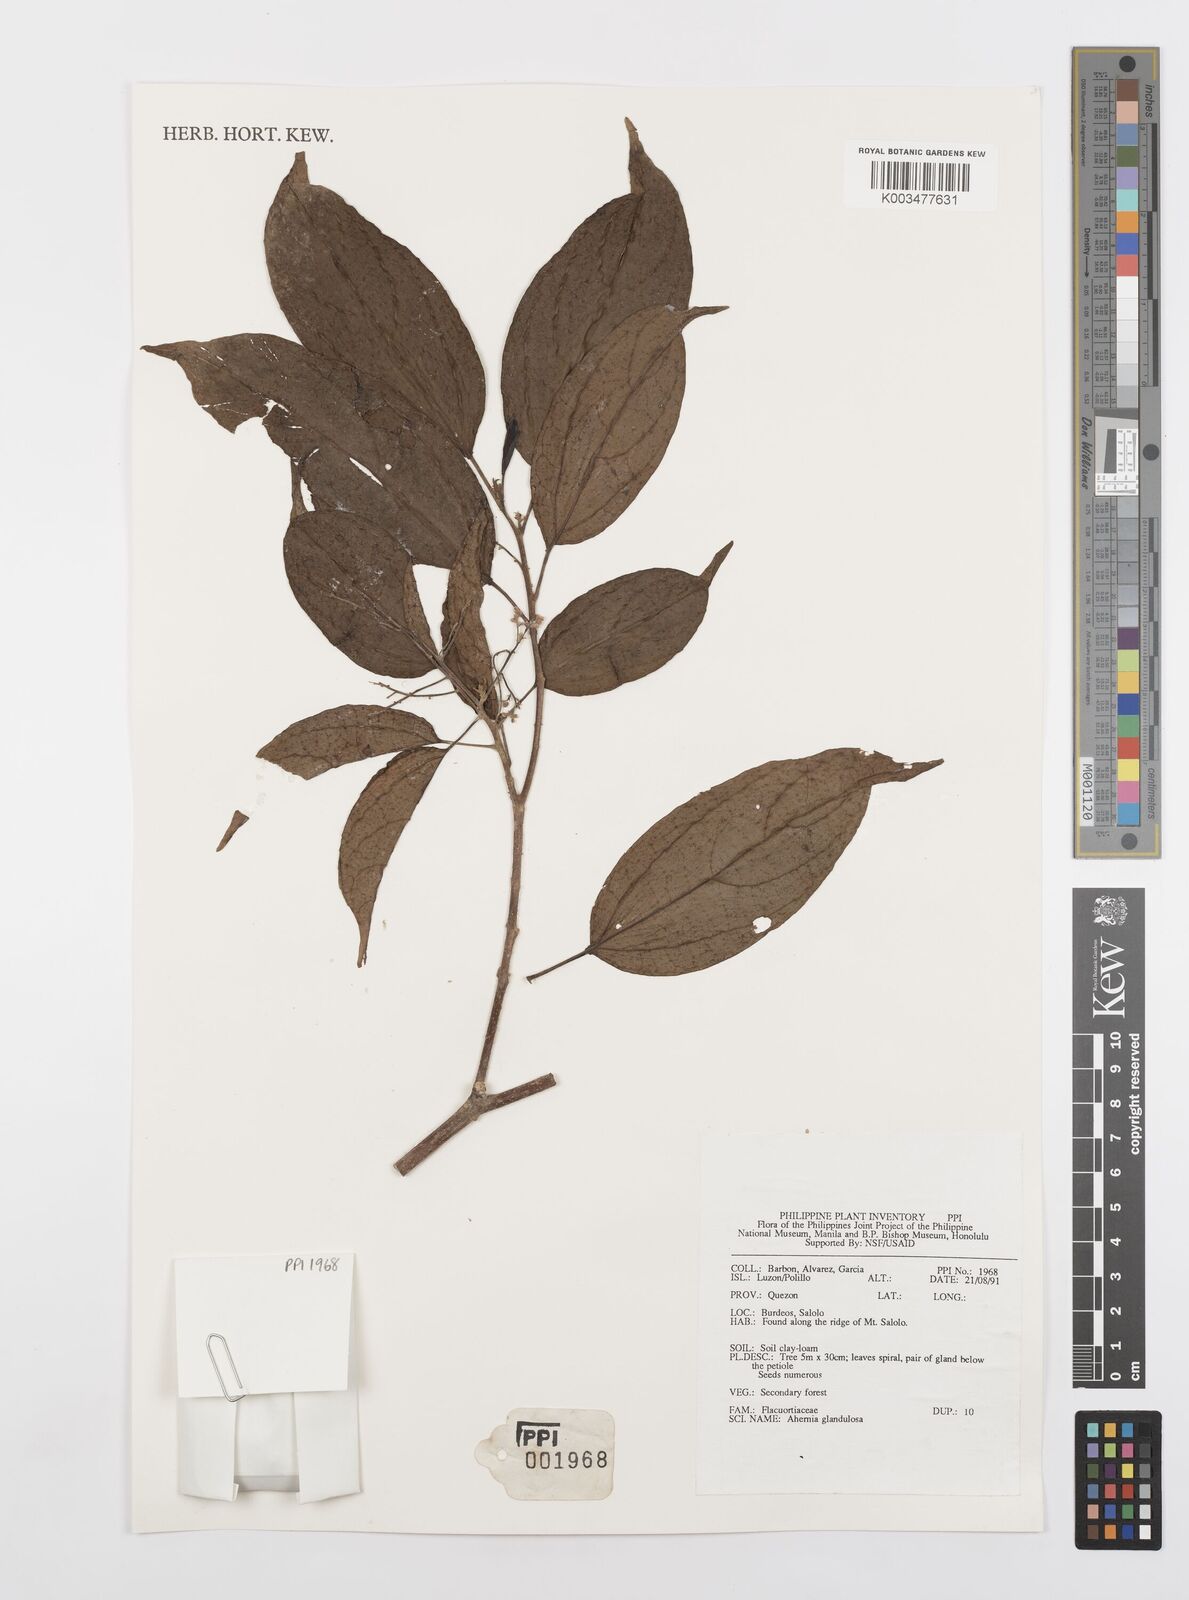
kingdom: Plantae
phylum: Tracheophyta
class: Magnoliopsida
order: Malpighiales
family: Achariaceae
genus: Ahernia
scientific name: Ahernia glandulosa
